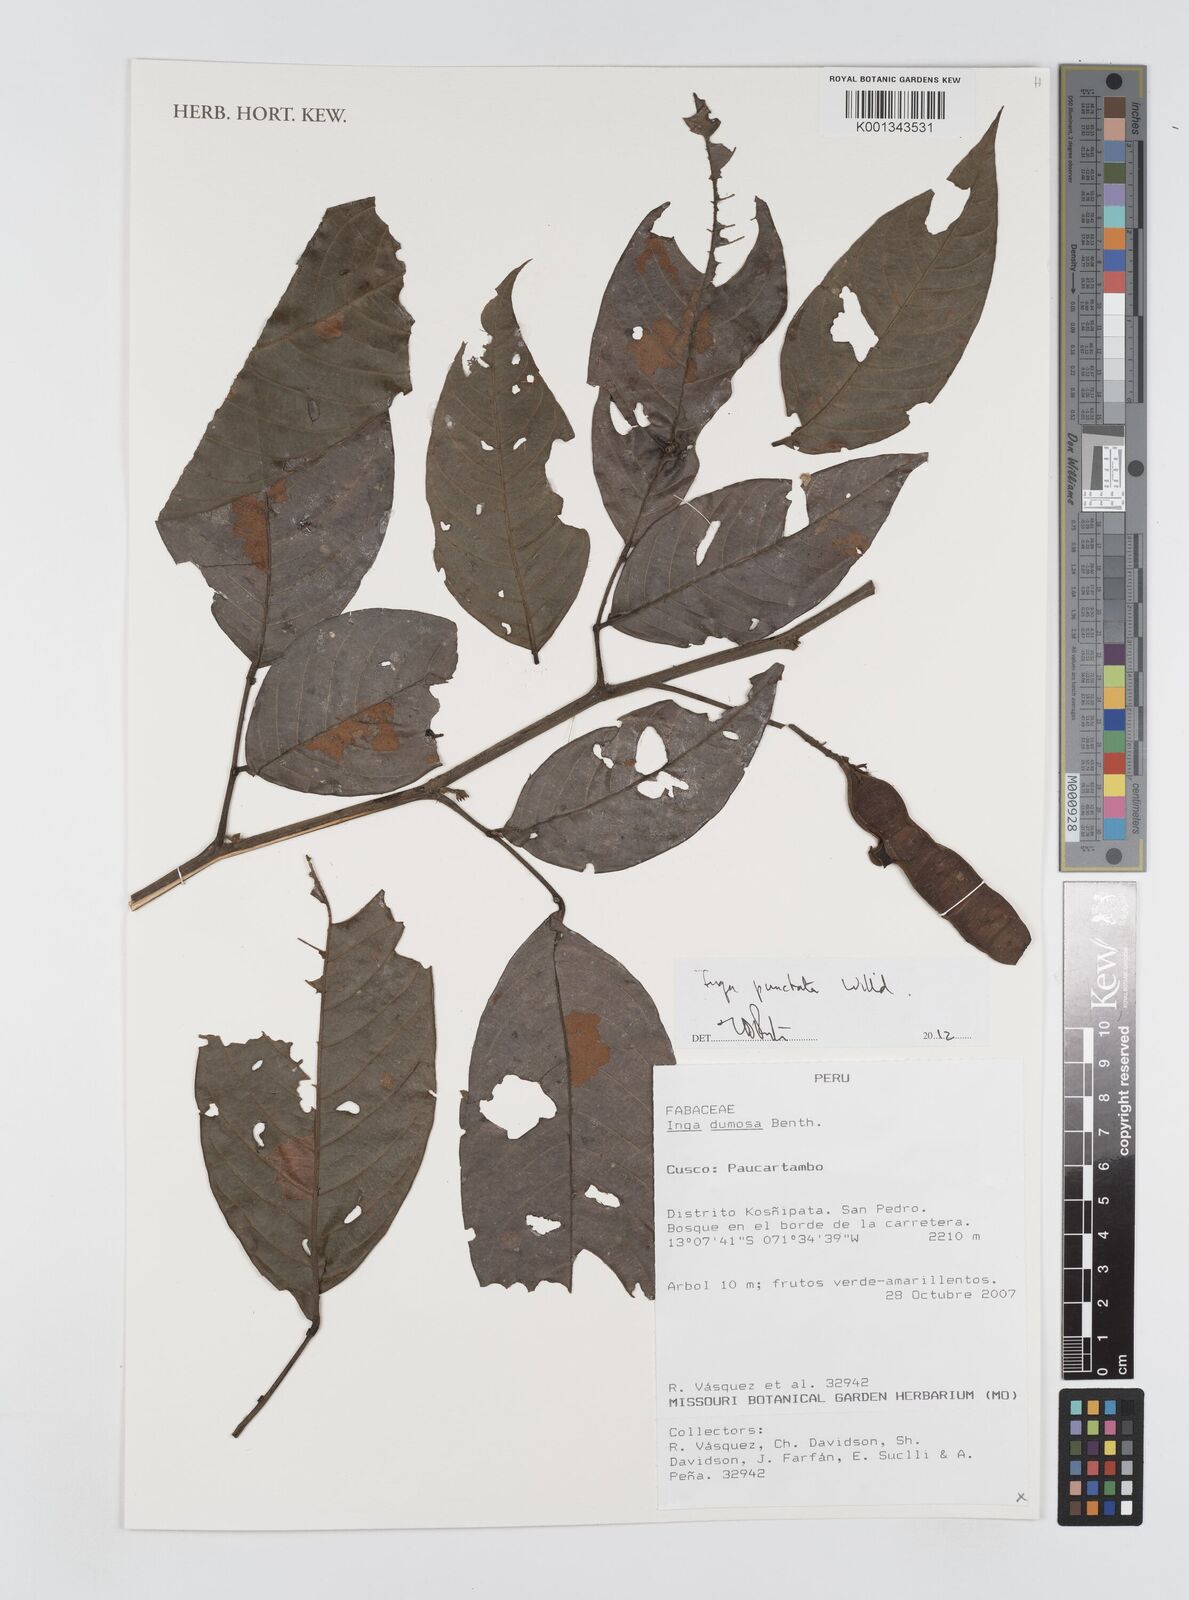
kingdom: Plantae
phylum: Tracheophyta
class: Magnoliopsida
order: Fabales
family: Fabaceae
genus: Inga
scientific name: Inga punctata
